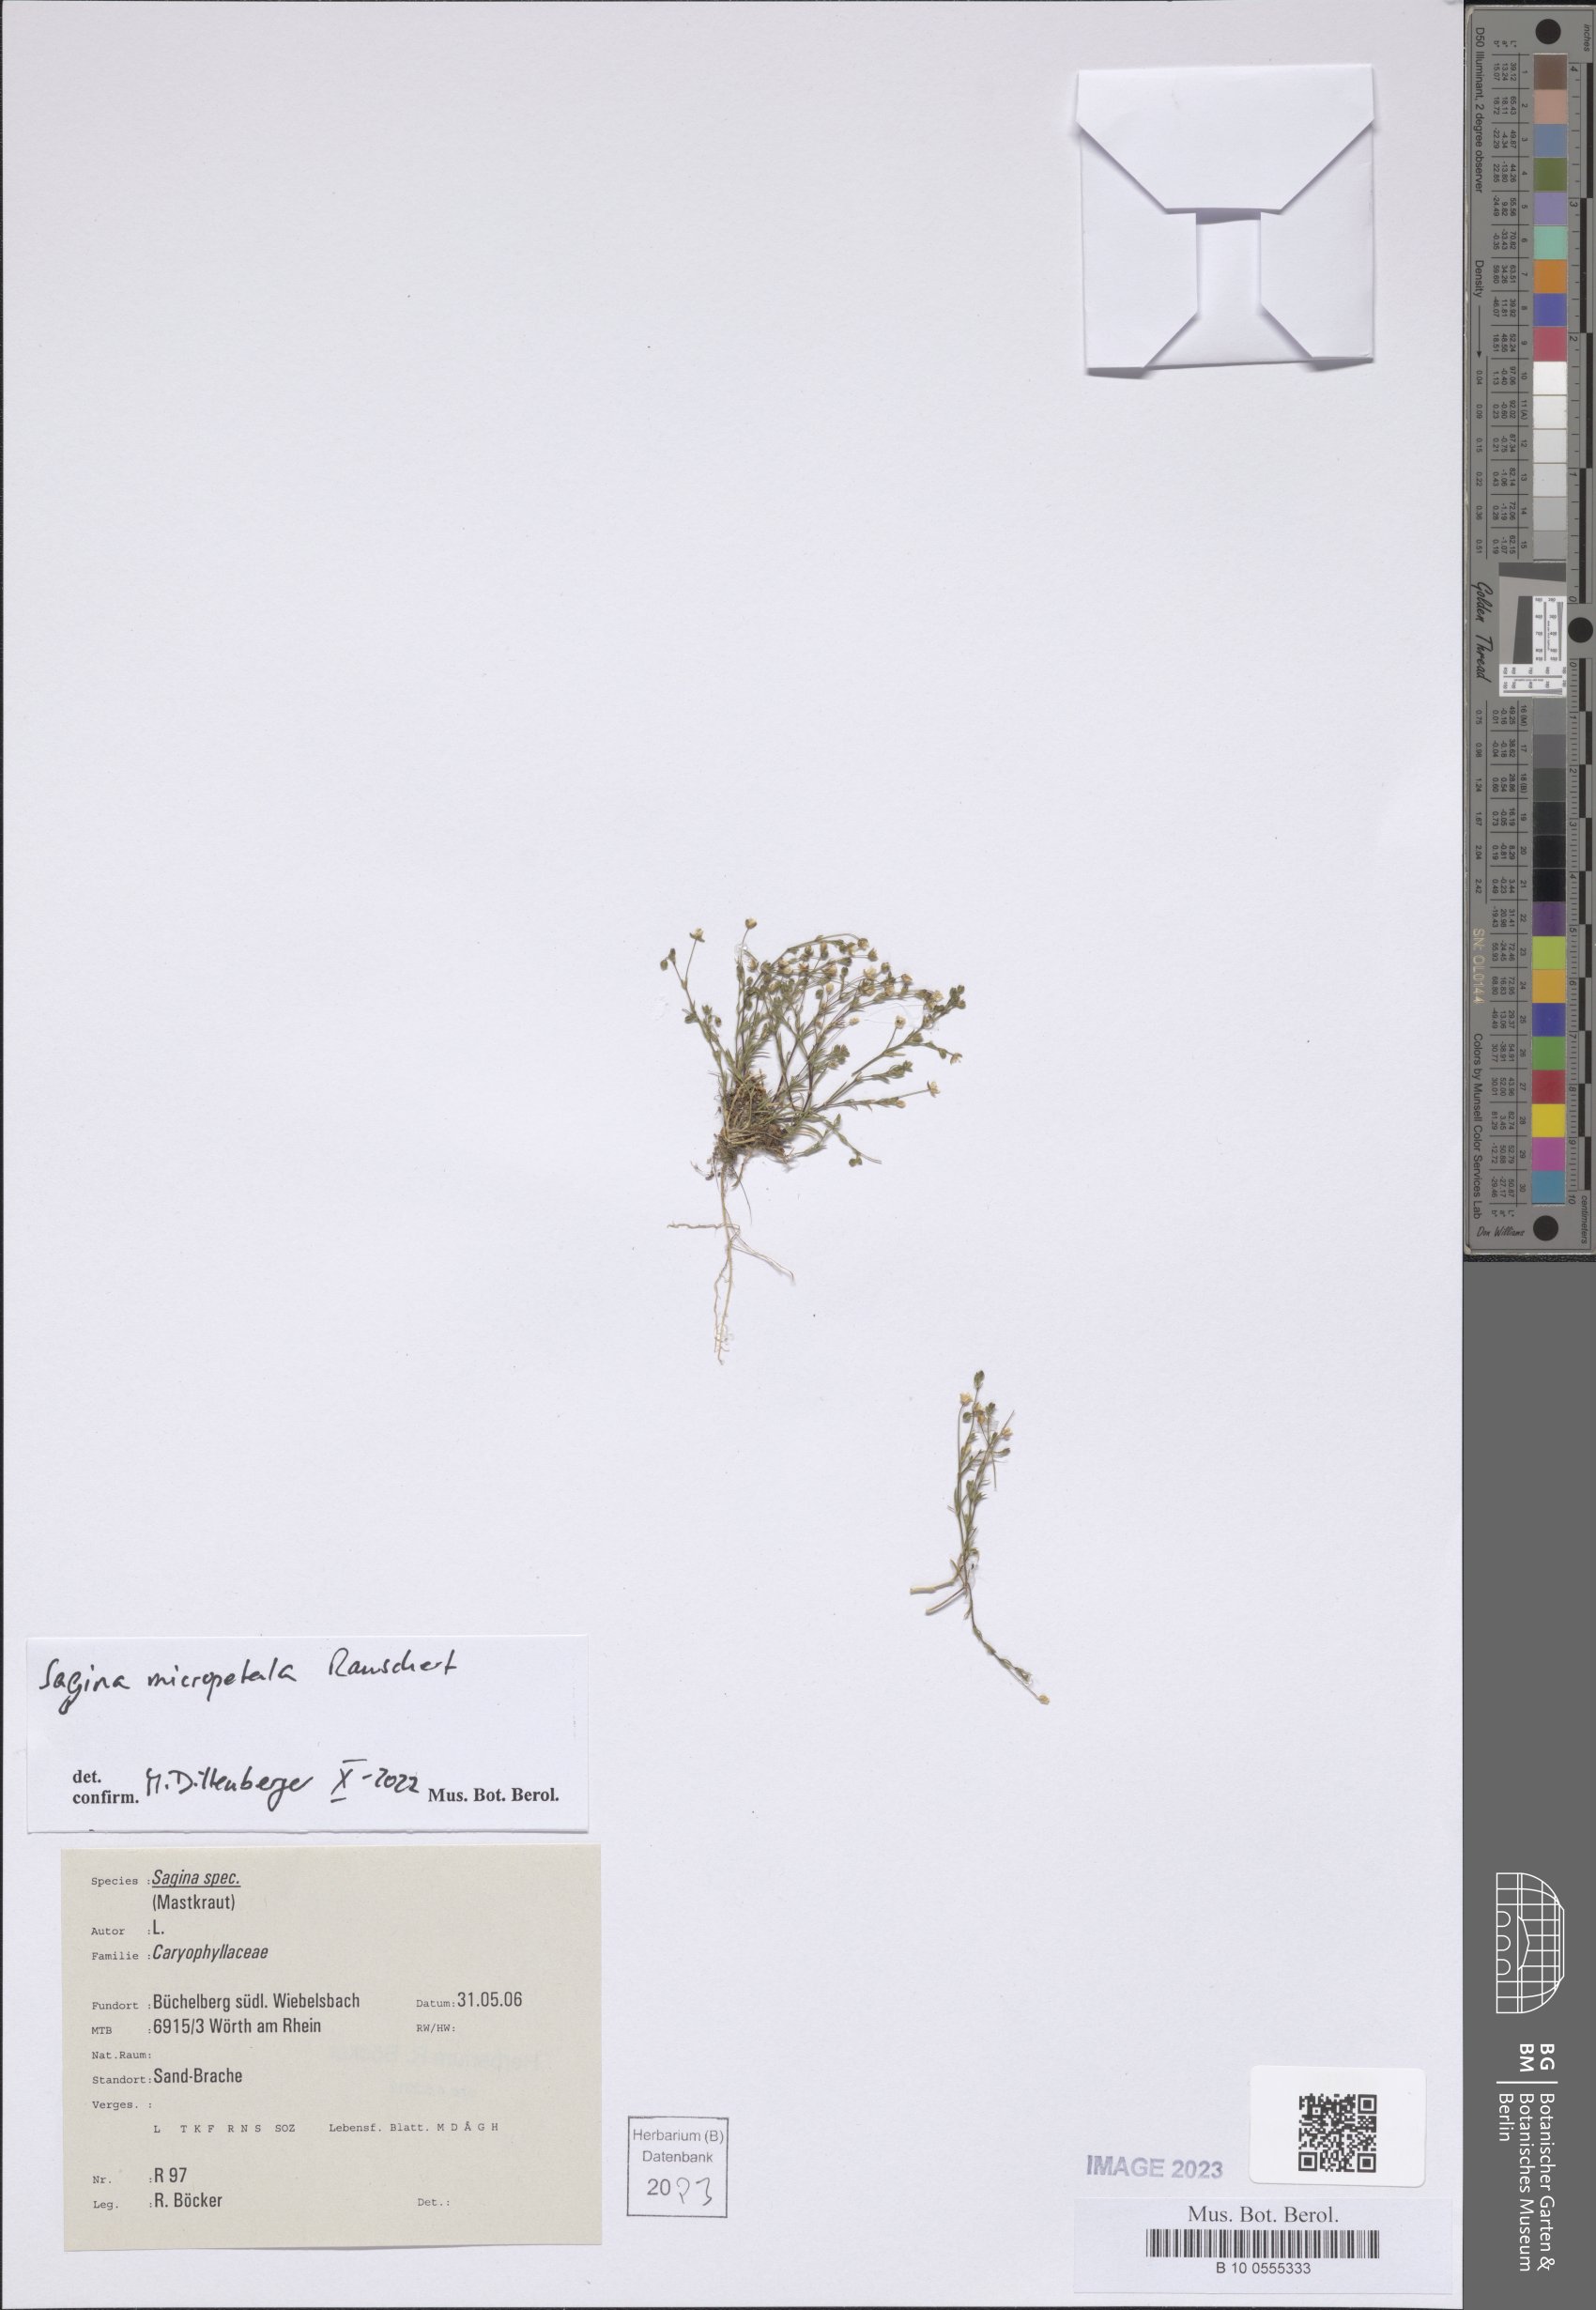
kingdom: Plantae
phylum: Tracheophyta
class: Magnoliopsida
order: Caryophyllales
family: Caryophyllaceae
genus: Sagina
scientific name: Sagina micropetala
